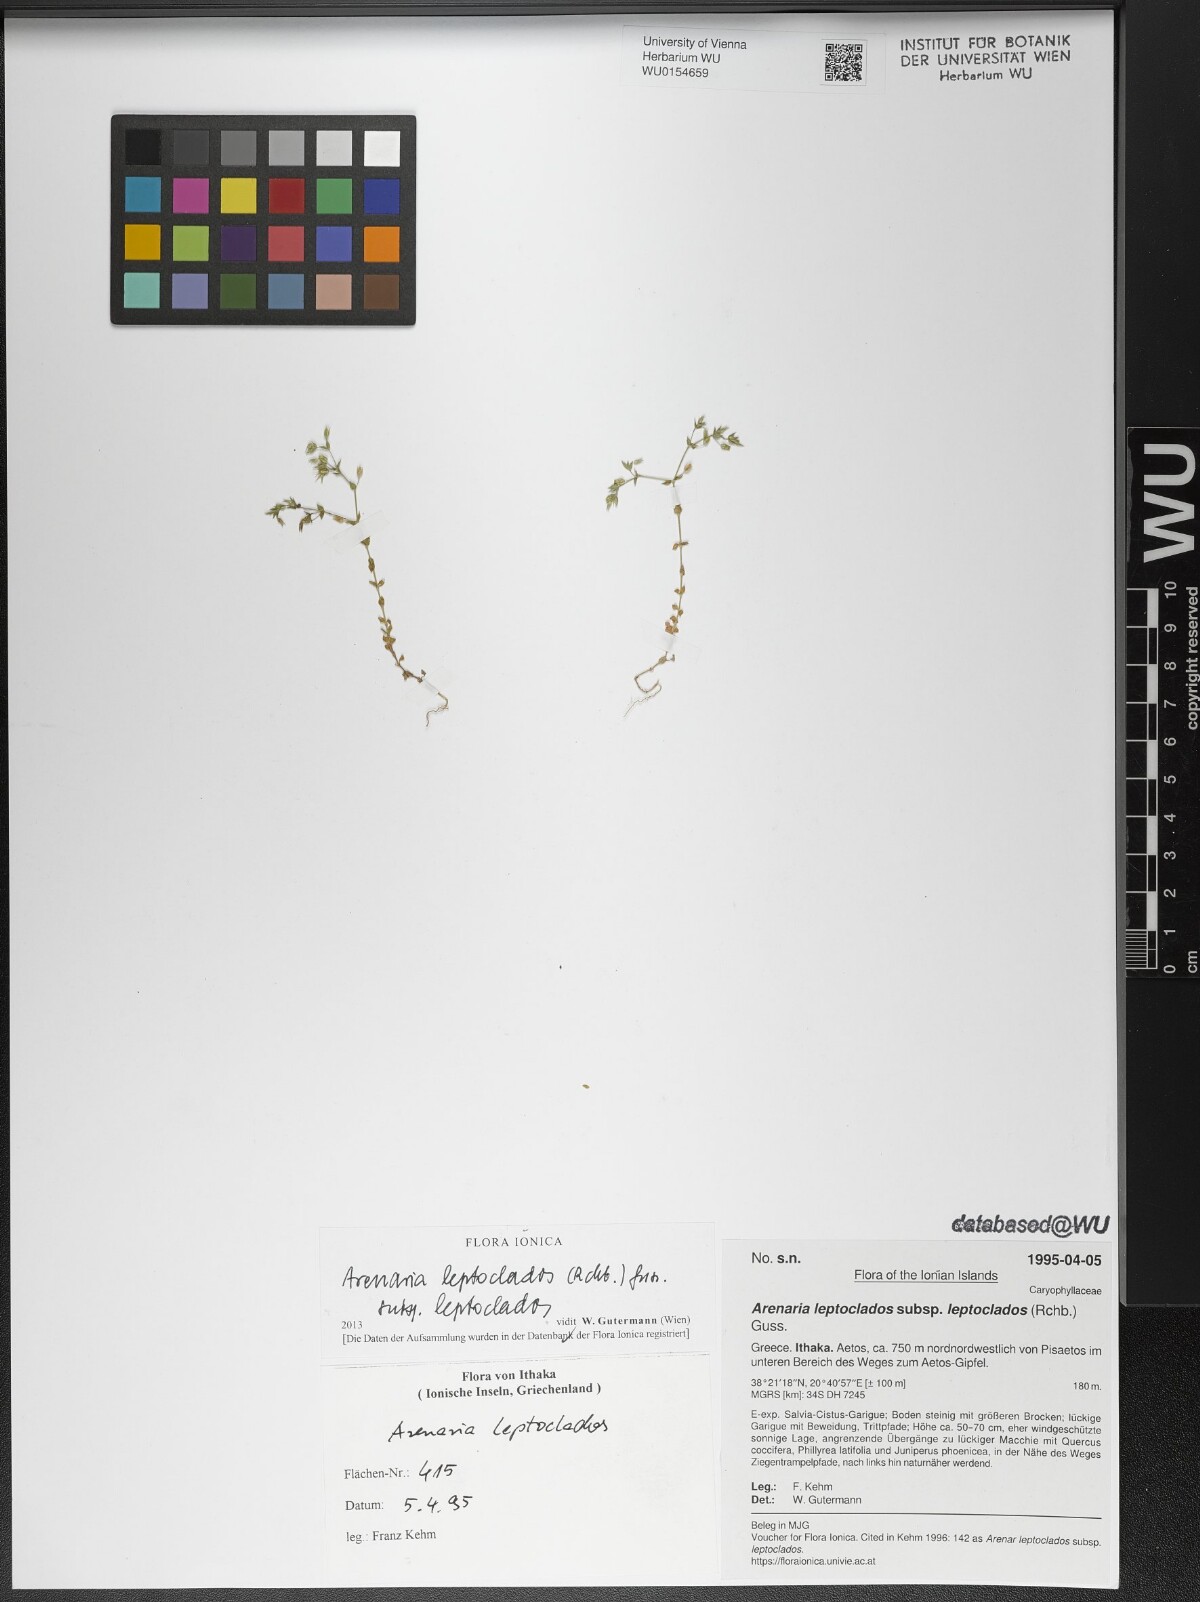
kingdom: Plantae
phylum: Tracheophyta
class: Magnoliopsida
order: Caryophyllales
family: Caryophyllaceae
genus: Arenaria
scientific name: Arenaria leptoclados
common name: Thyme-leaved sandwort
